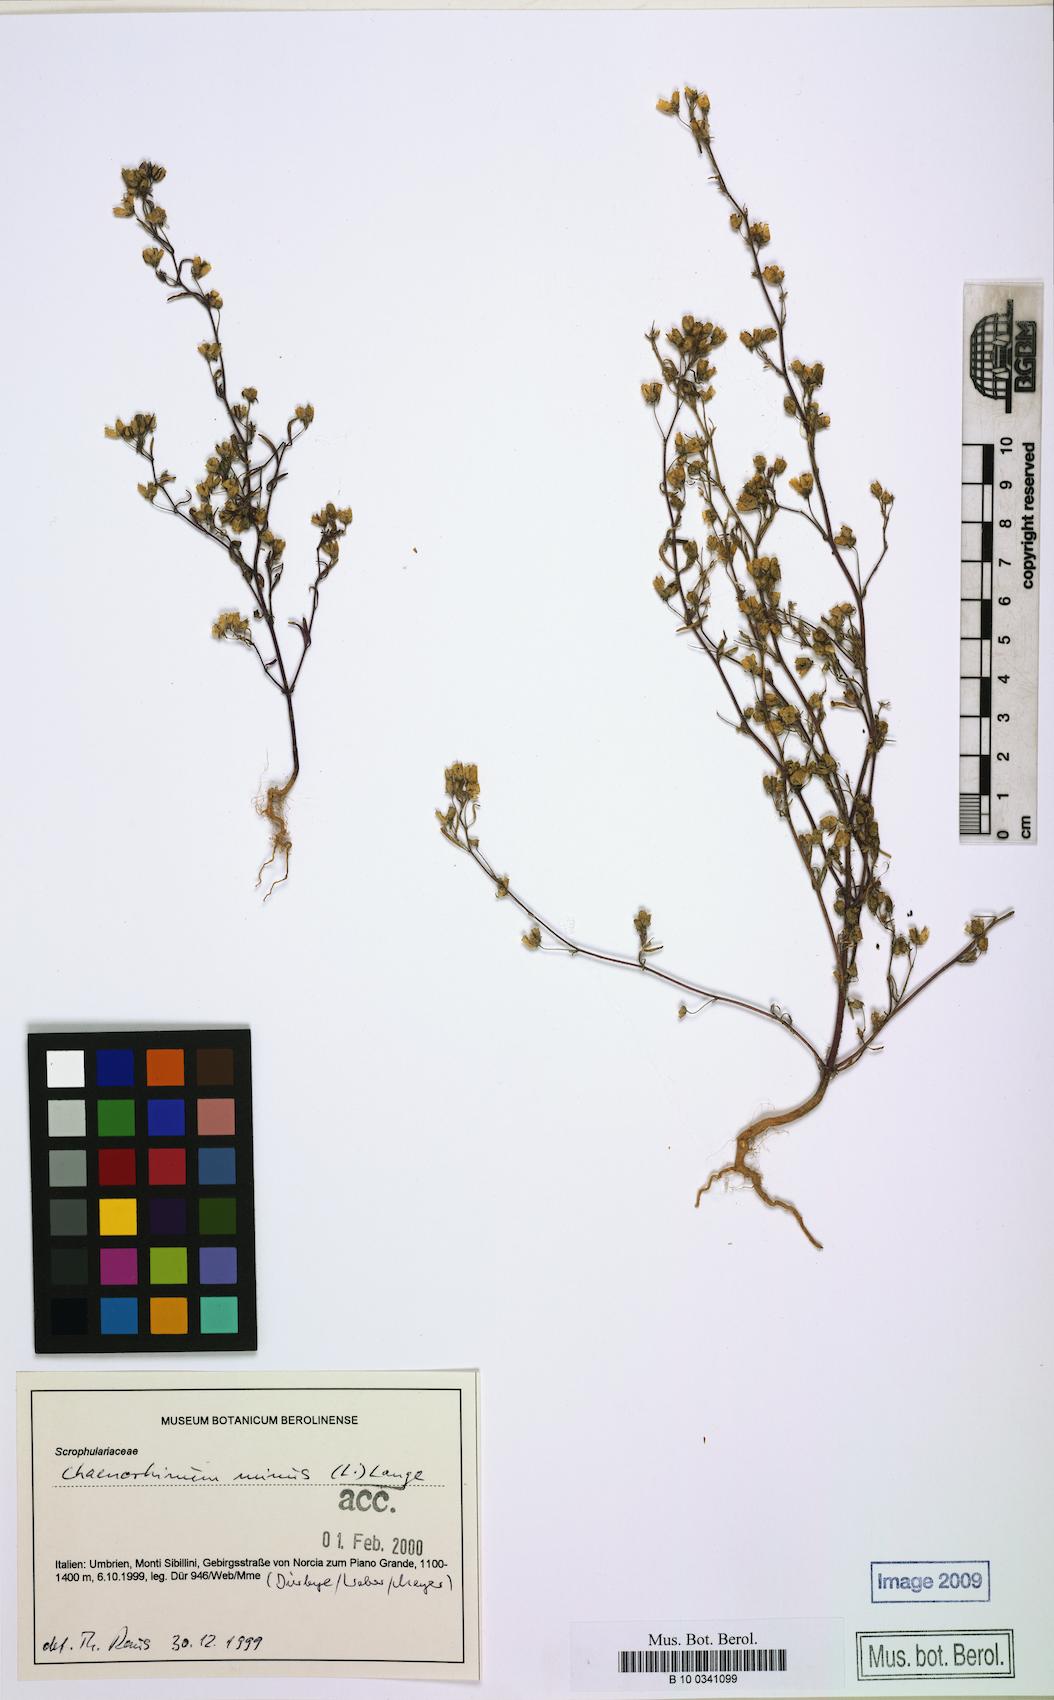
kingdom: Plantae
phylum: Tracheophyta
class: Magnoliopsida
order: Lamiales
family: Plantaginaceae
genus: Chaenorhinum
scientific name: Chaenorhinum minus
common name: Dwarf snapdragon
